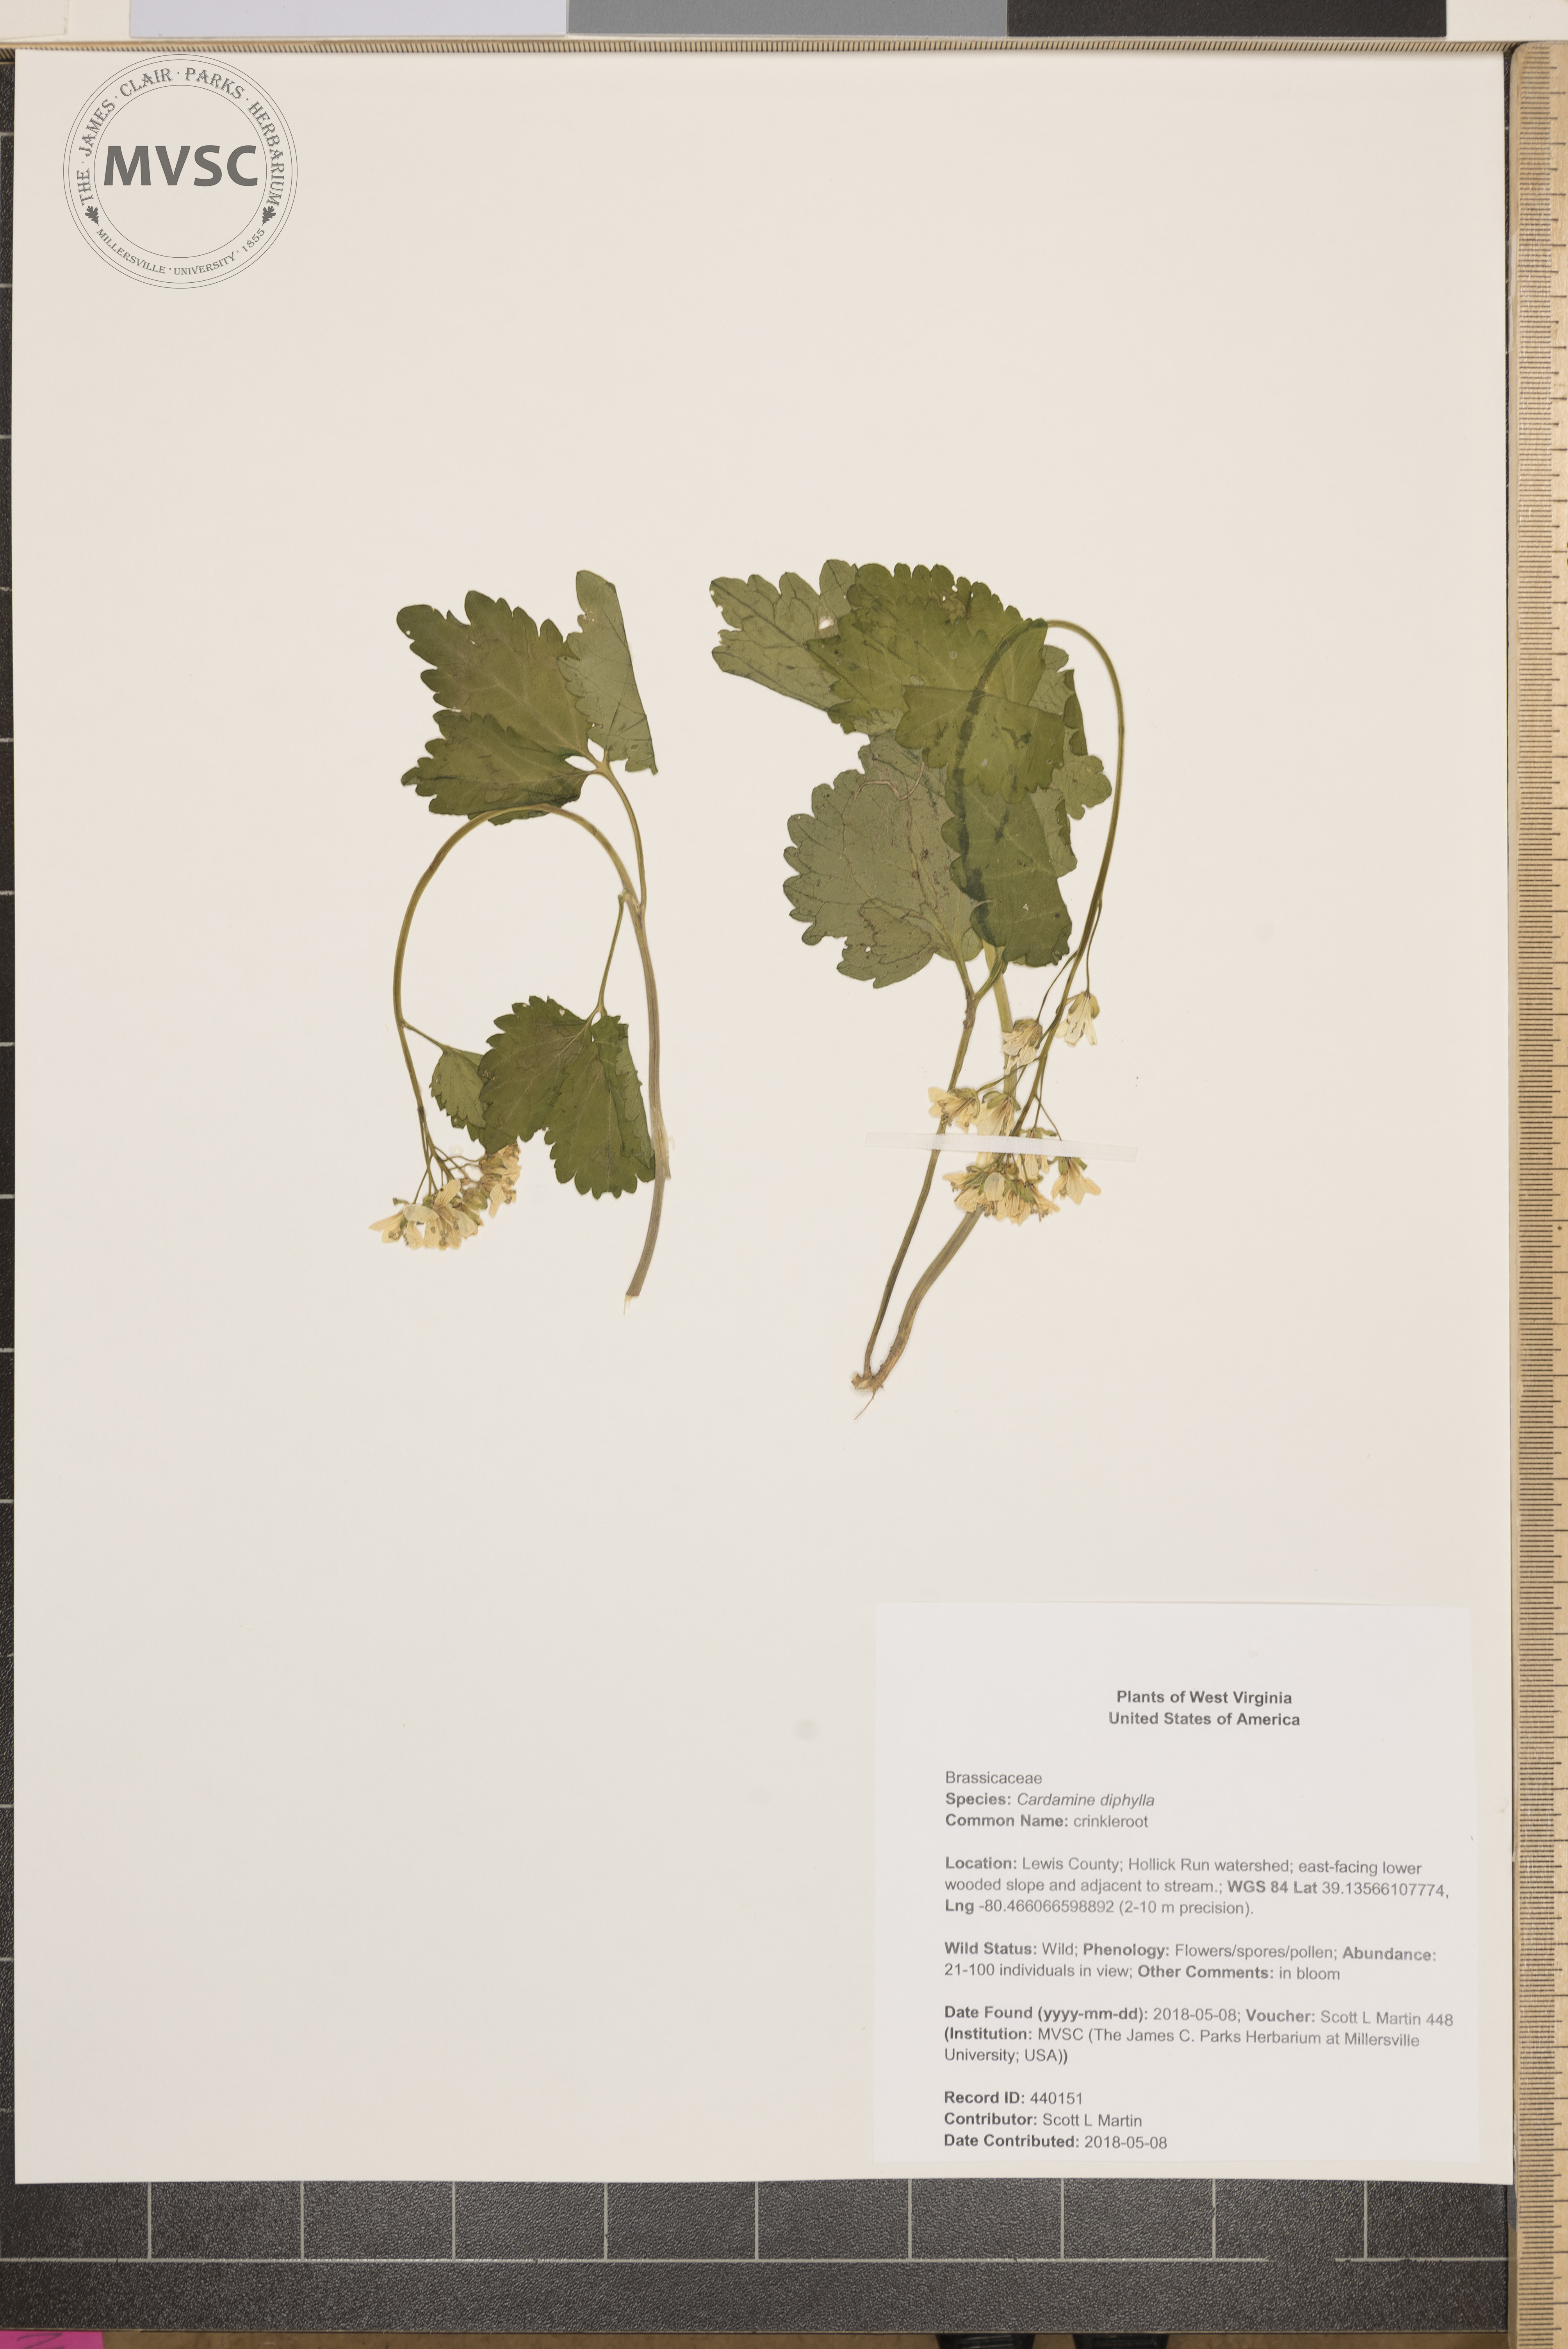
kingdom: Plantae
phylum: Tracheophyta
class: Magnoliopsida
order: Brassicales
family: Brassicaceae
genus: Cardamine
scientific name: Cardamine diphylla
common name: crinkleroot
